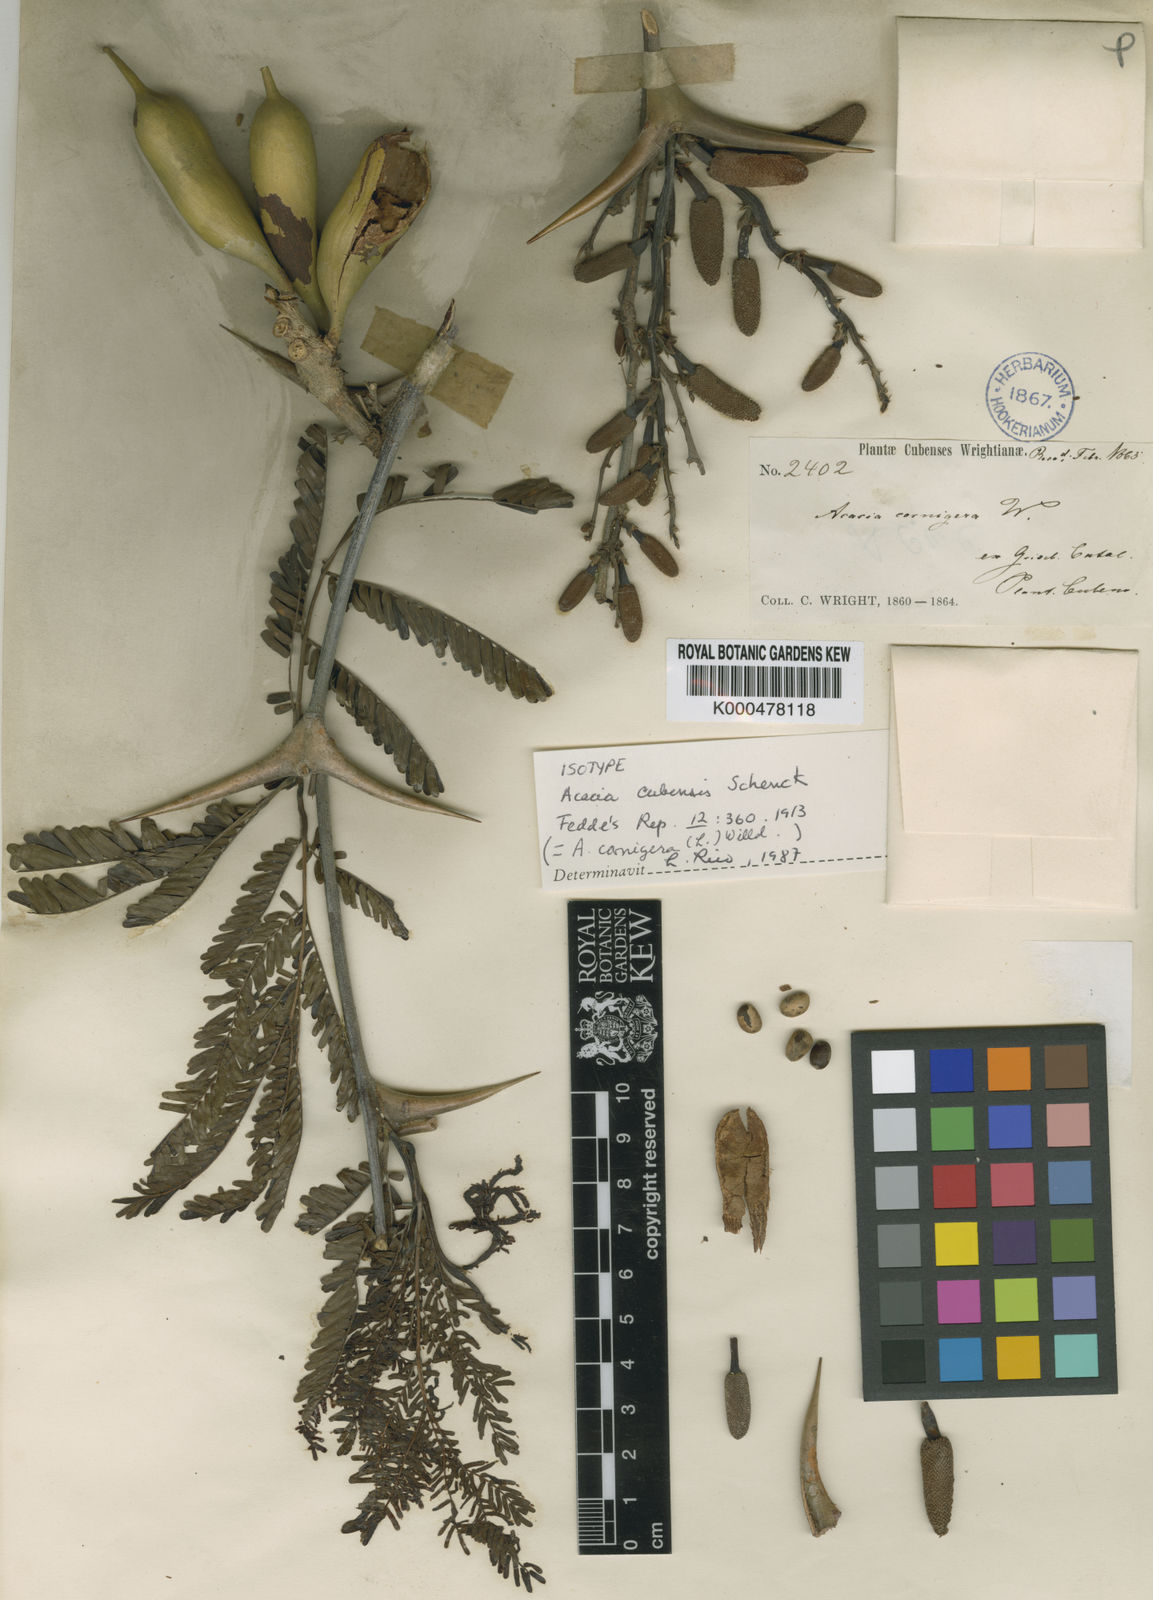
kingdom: Plantae
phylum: Tracheophyta
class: Magnoliopsida
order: Fabales
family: Fabaceae
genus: Vachellia
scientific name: Vachellia cornigera
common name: Bullhorn wattle
